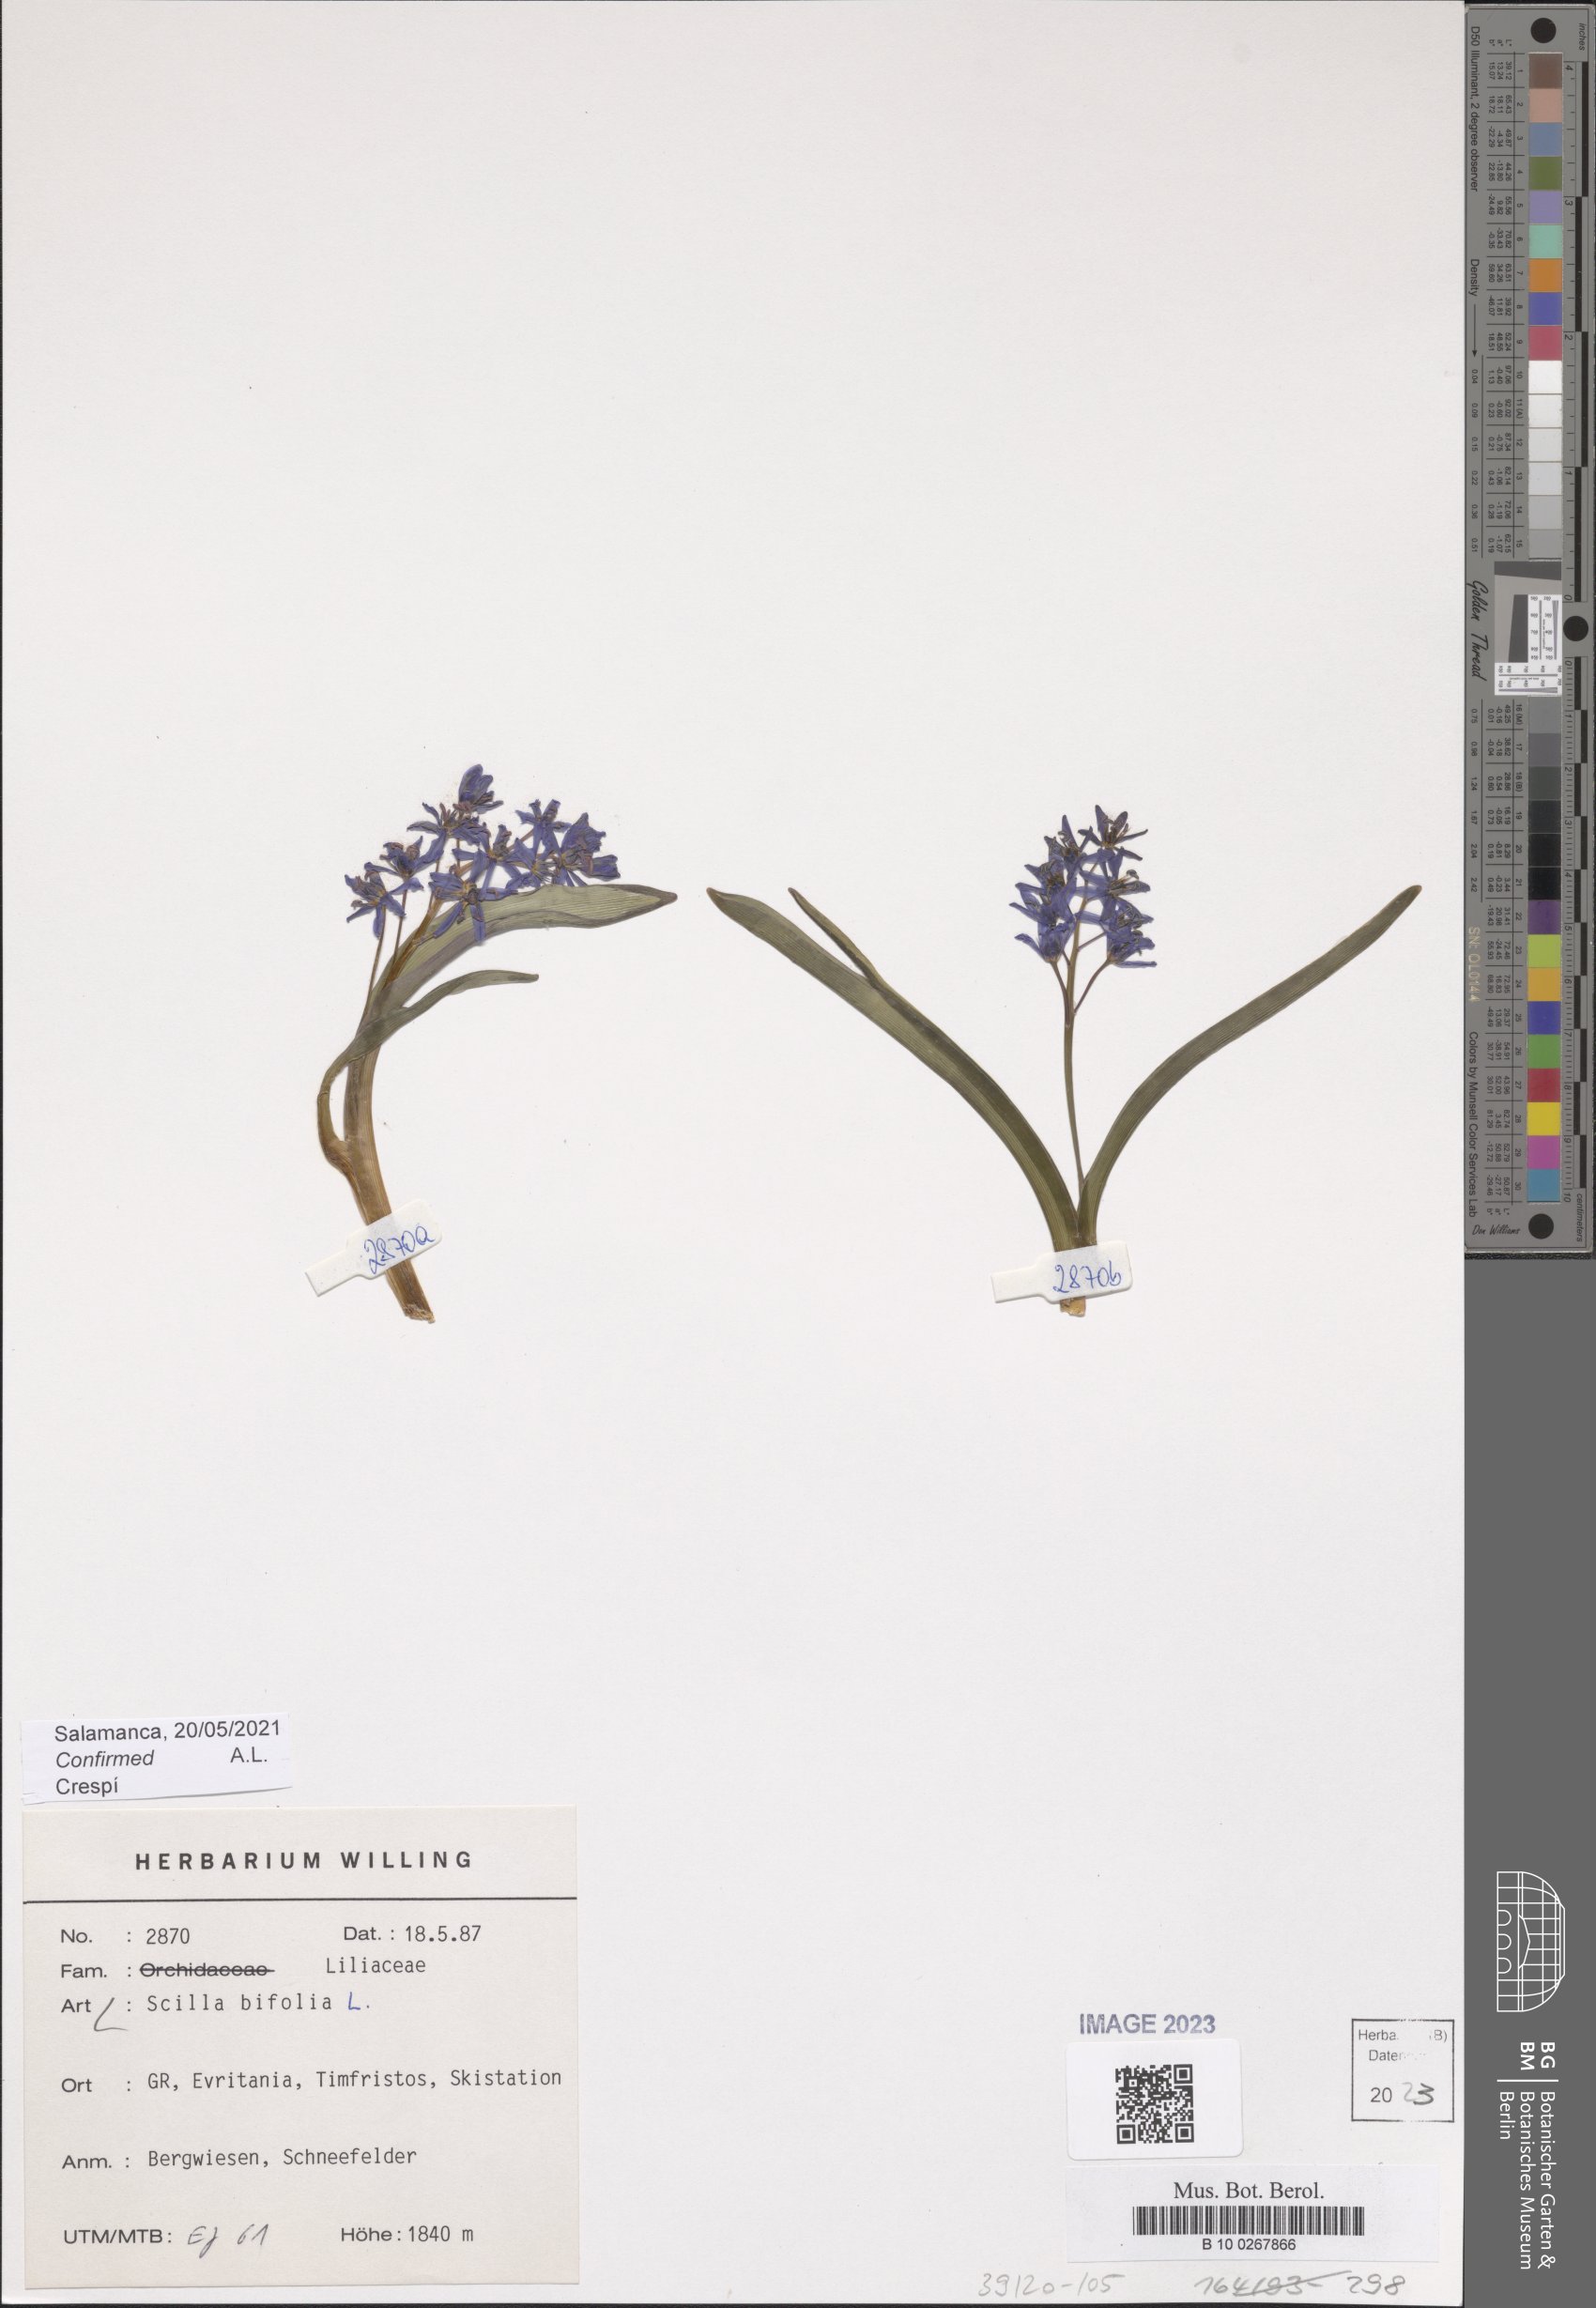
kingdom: Plantae
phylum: Tracheophyta
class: Liliopsida
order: Asparagales
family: Asparagaceae
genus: Scilla
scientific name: Scilla bifolia
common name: Alpine squill
